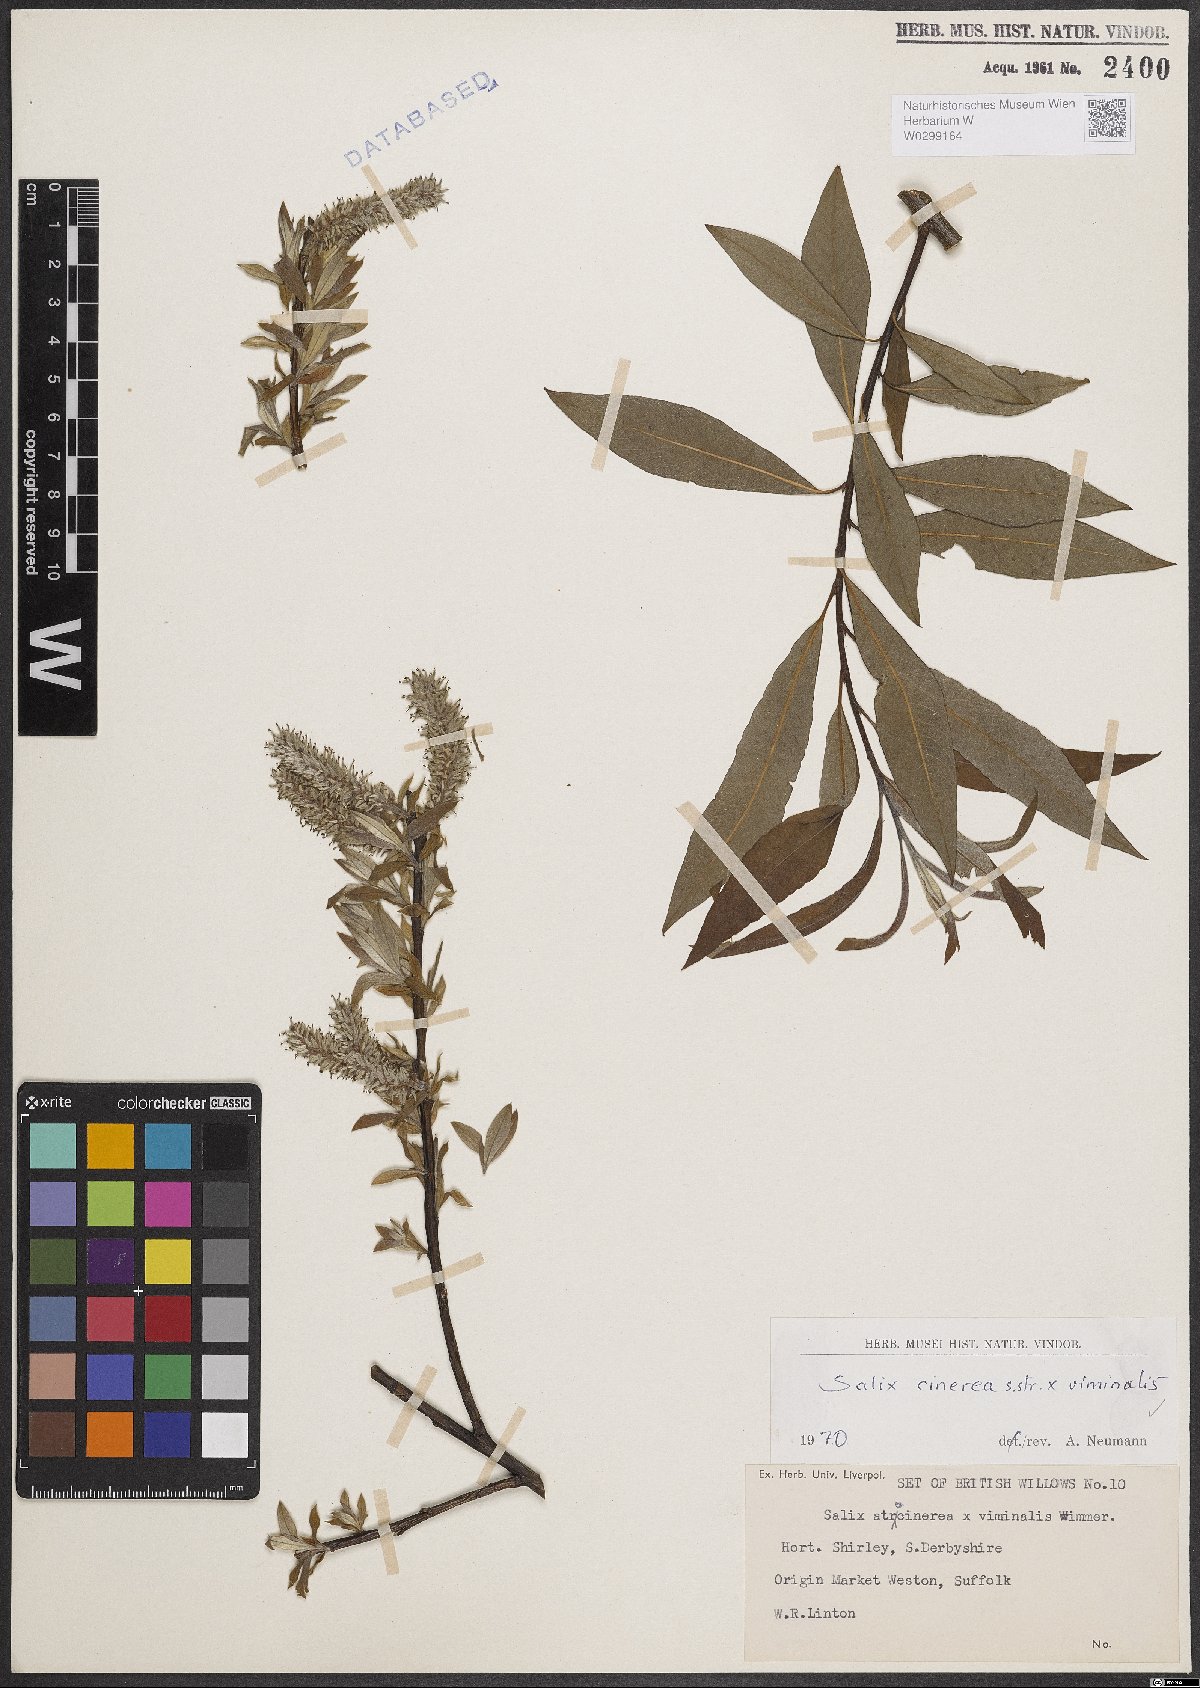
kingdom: Plantae
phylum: Tracheophyta
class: Magnoliopsida
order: Malpighiales
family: Salicaceae
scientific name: Salicaceae
